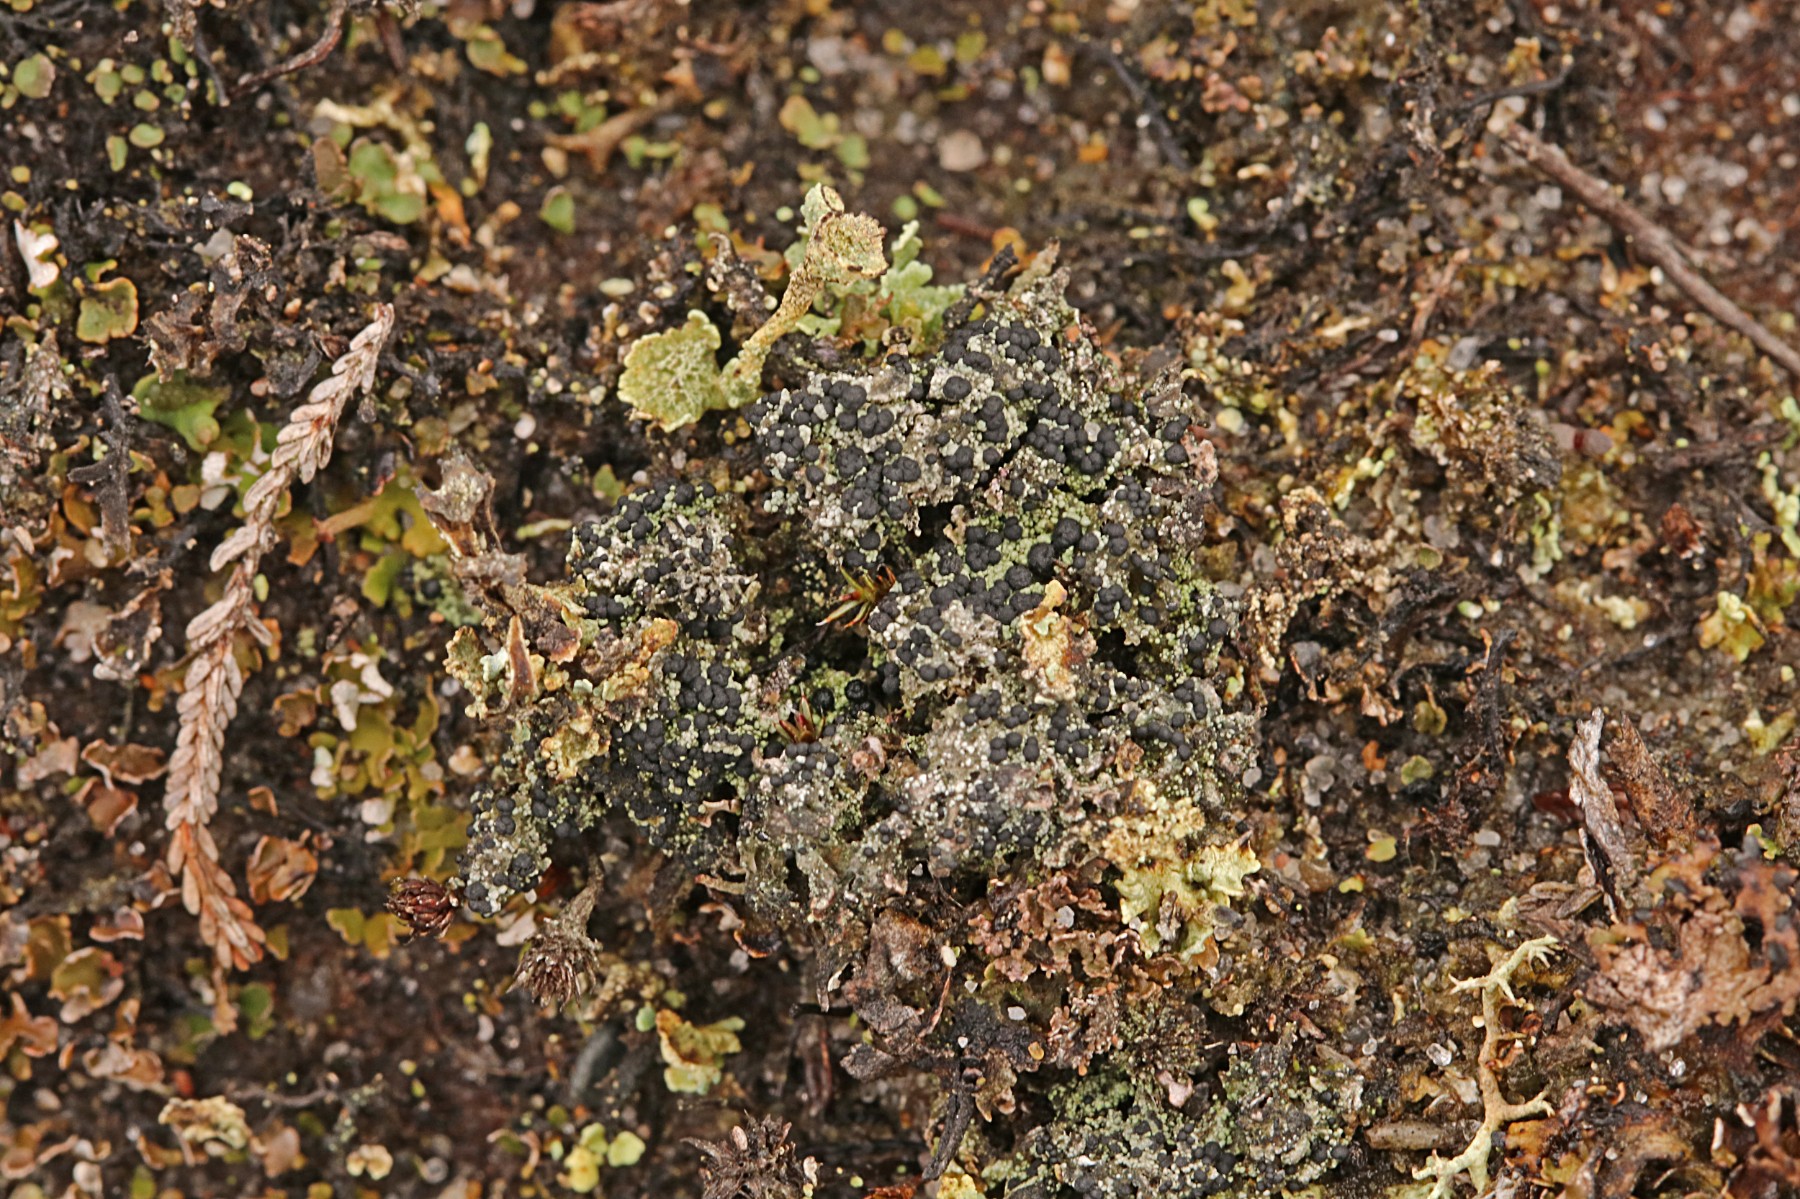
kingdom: Fungi
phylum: Ascomycota
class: Lecanoromycetes
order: Lecanorales
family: Byssolomataceae
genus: Micarea
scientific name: Micarea lignaria
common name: tørve-knaplav
